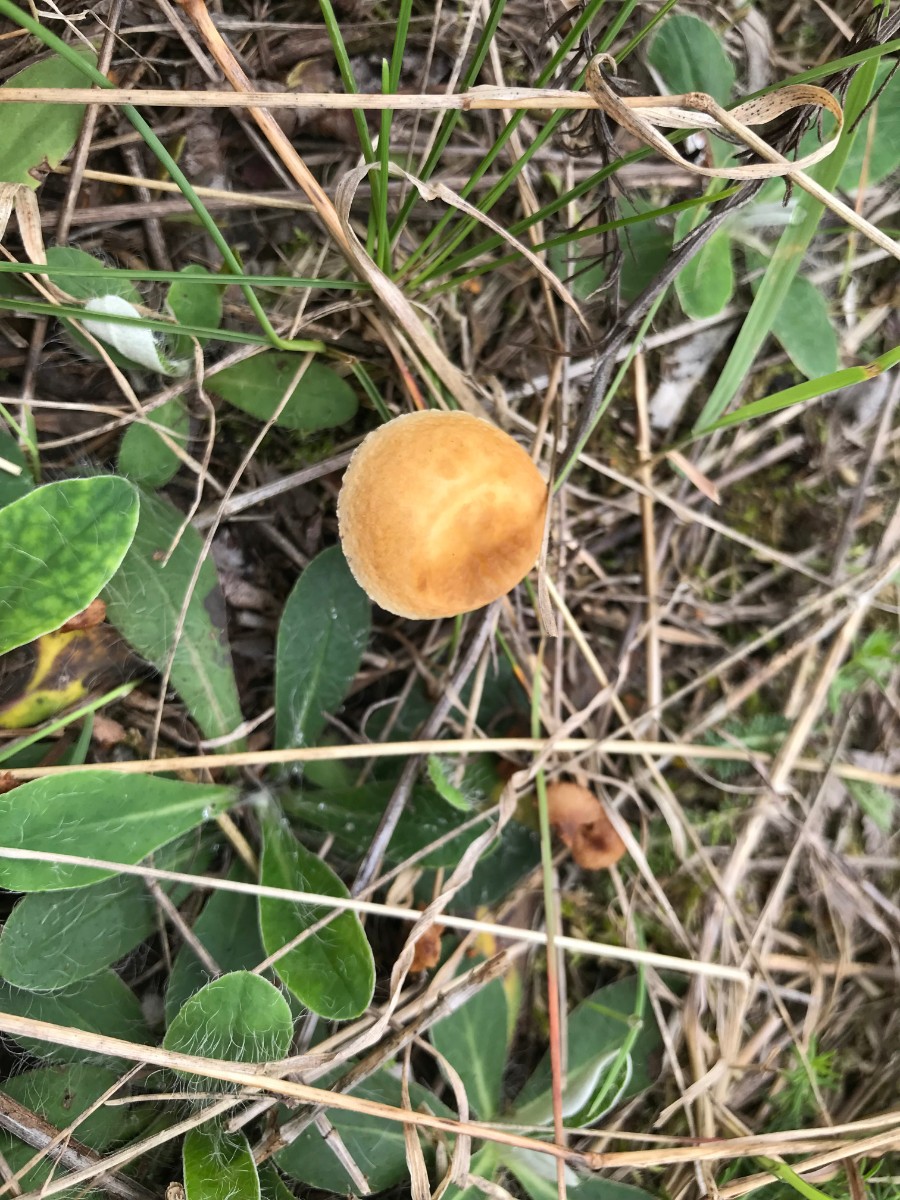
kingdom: Fungi
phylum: Basidiomycota
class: Agaricomycetes
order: Agaricales
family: Strophariaceae
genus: Agrocybe
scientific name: Agrocybe vervacti
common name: lav agerhat
